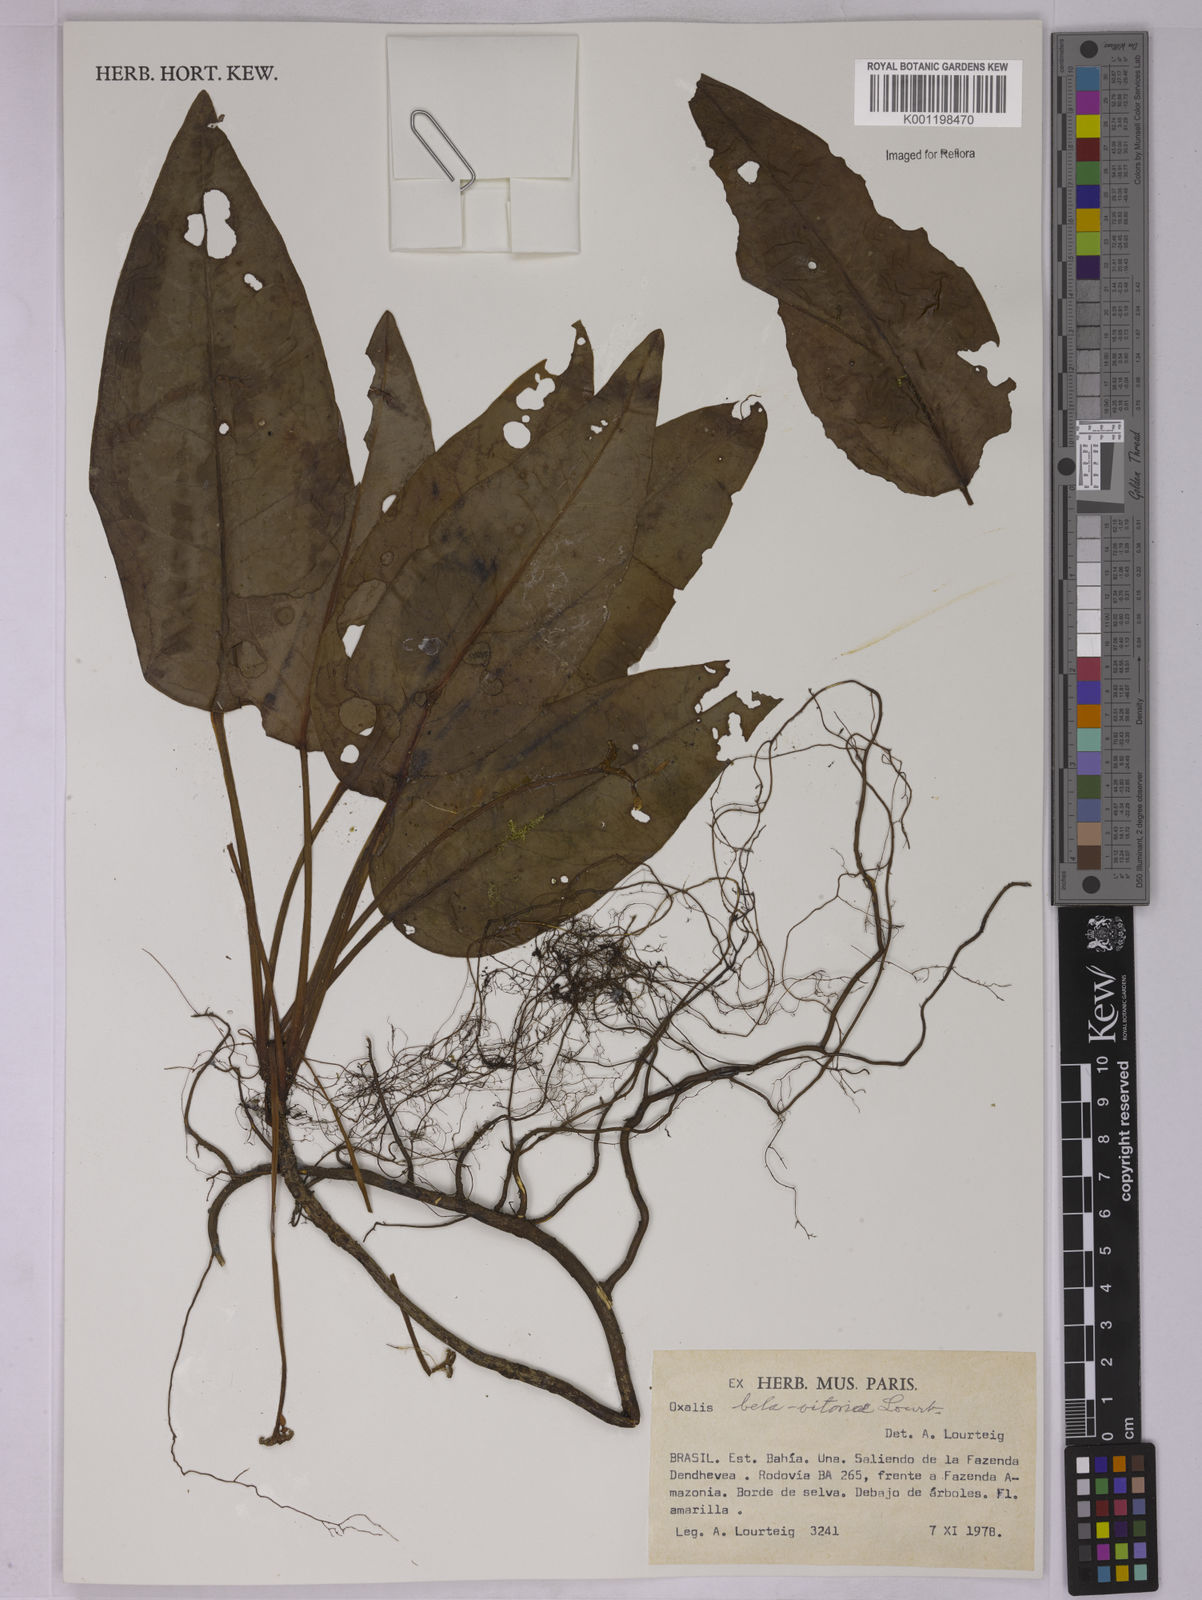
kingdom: Plantae
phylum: Tracheophyta
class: Magnoliopsida
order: Oxalidales
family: Oxalidaceae
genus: Oxalis
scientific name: Oxalis bela-vitoriae
